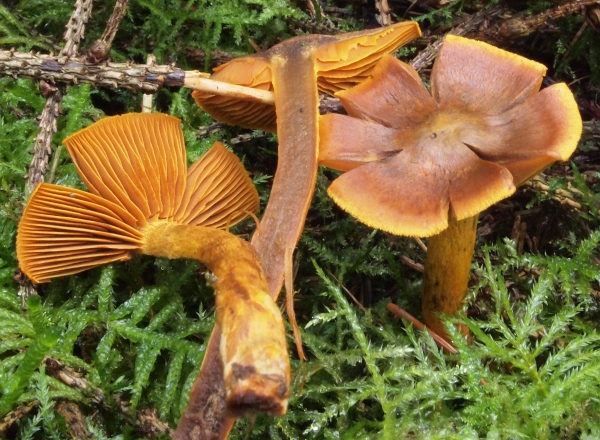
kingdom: Fungi
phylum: Basidiomycota
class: Agaricomycetes
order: Agaricales
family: Cortinariaceae
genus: Cortinarius
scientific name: Cortinarius malicorius
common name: grønkødet slørhat
